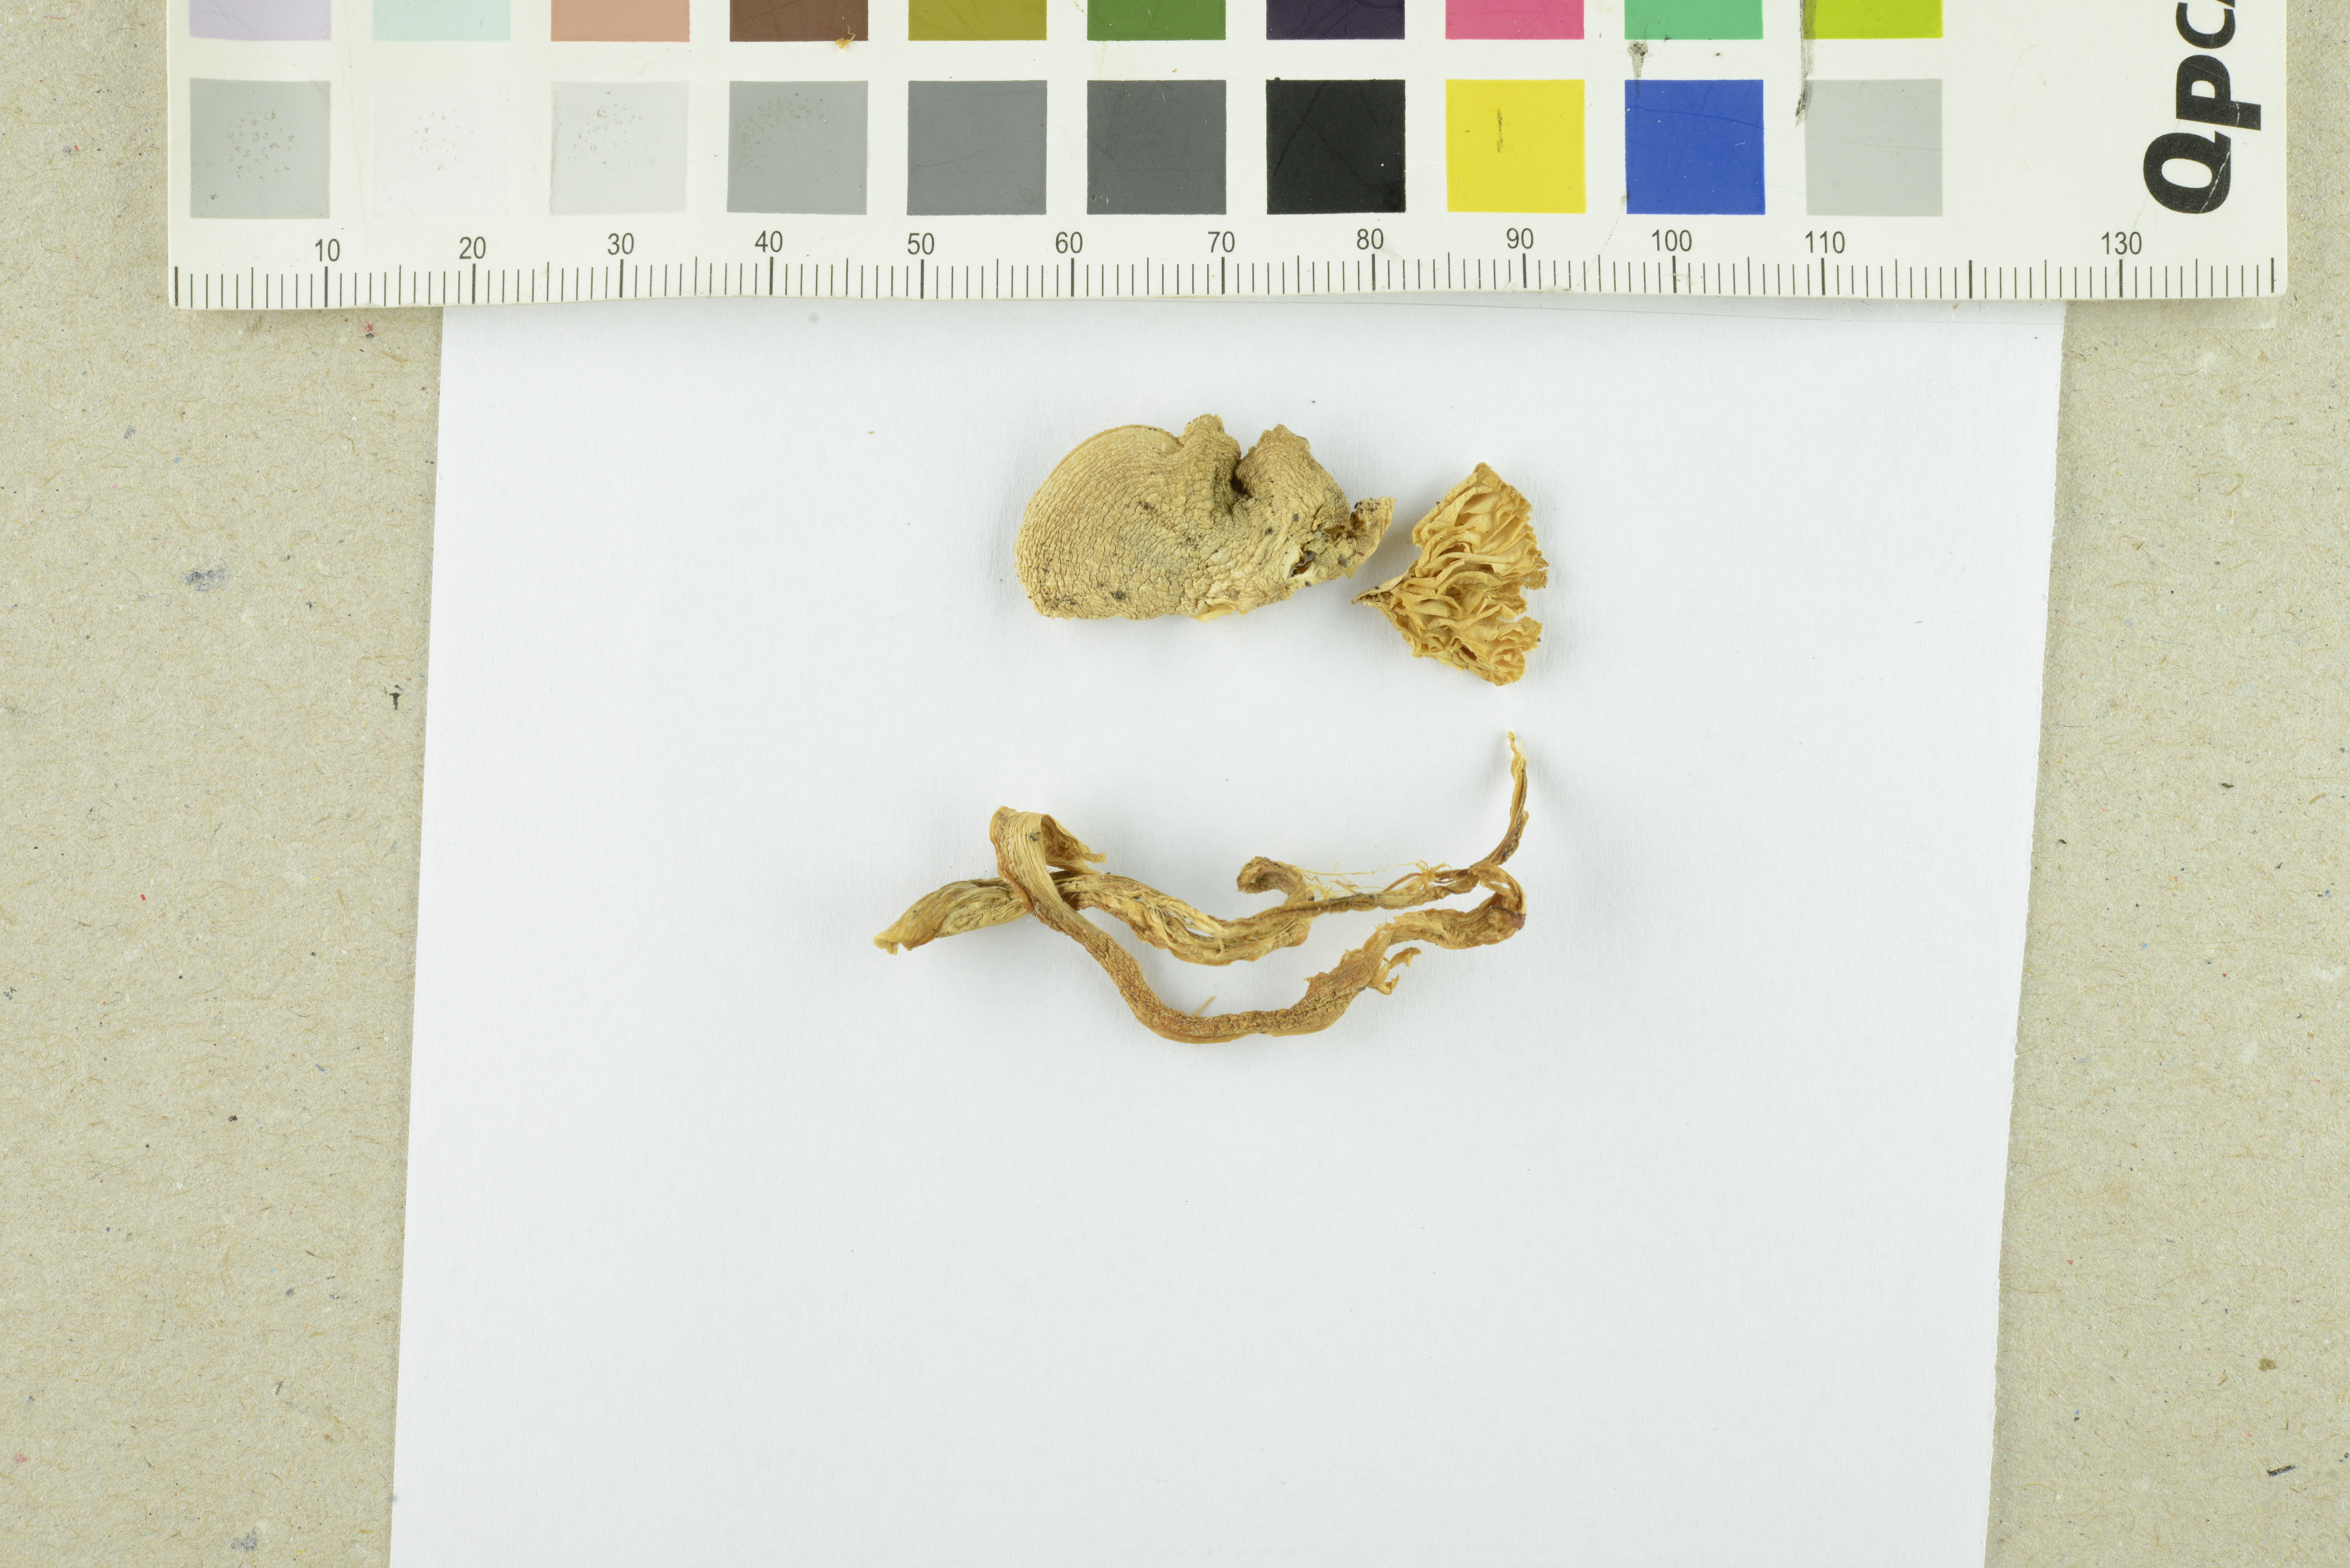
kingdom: Fungi
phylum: Basidiomycota
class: Agaricomycetes
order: Agaricales
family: Tricholomataceae
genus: Tricholoma
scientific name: Tricholoma argyraceum
